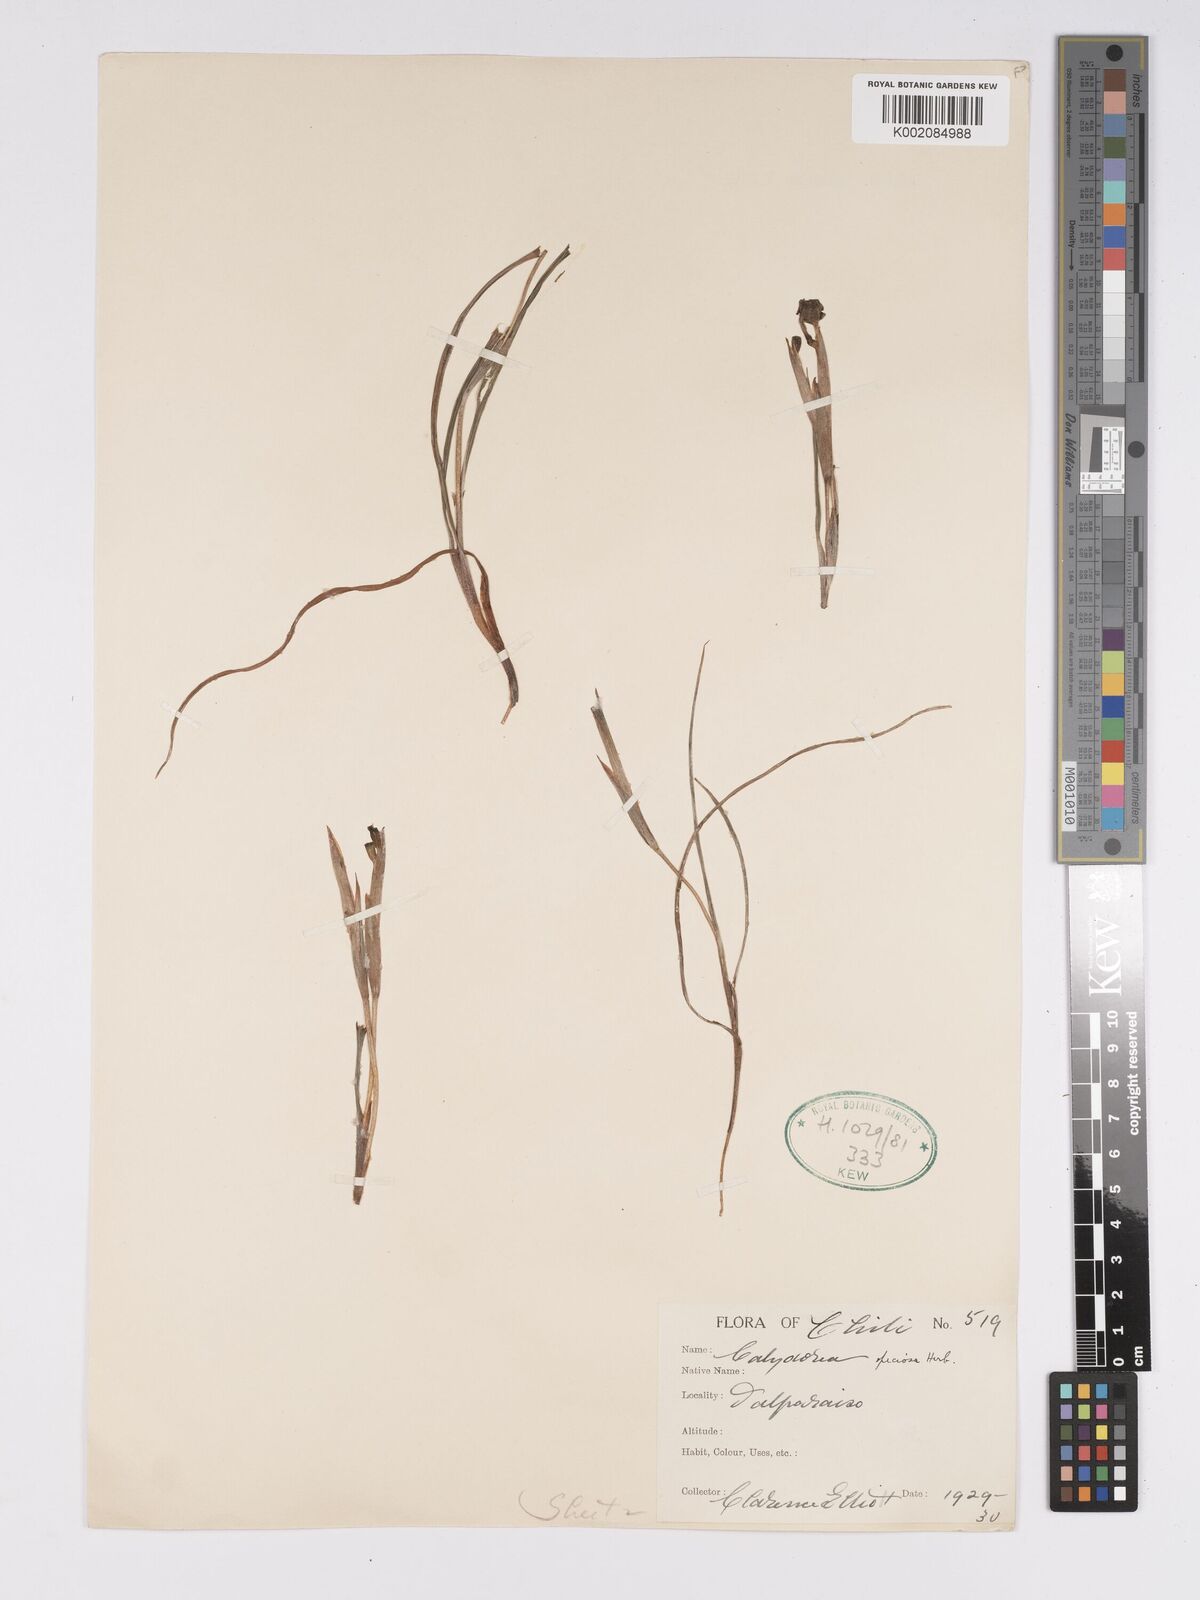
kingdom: Plantae
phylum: Tracheophyta
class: Liliopsida
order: Asparagales
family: Iridaceae
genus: Calydorea
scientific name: Calydorea xiphioides
